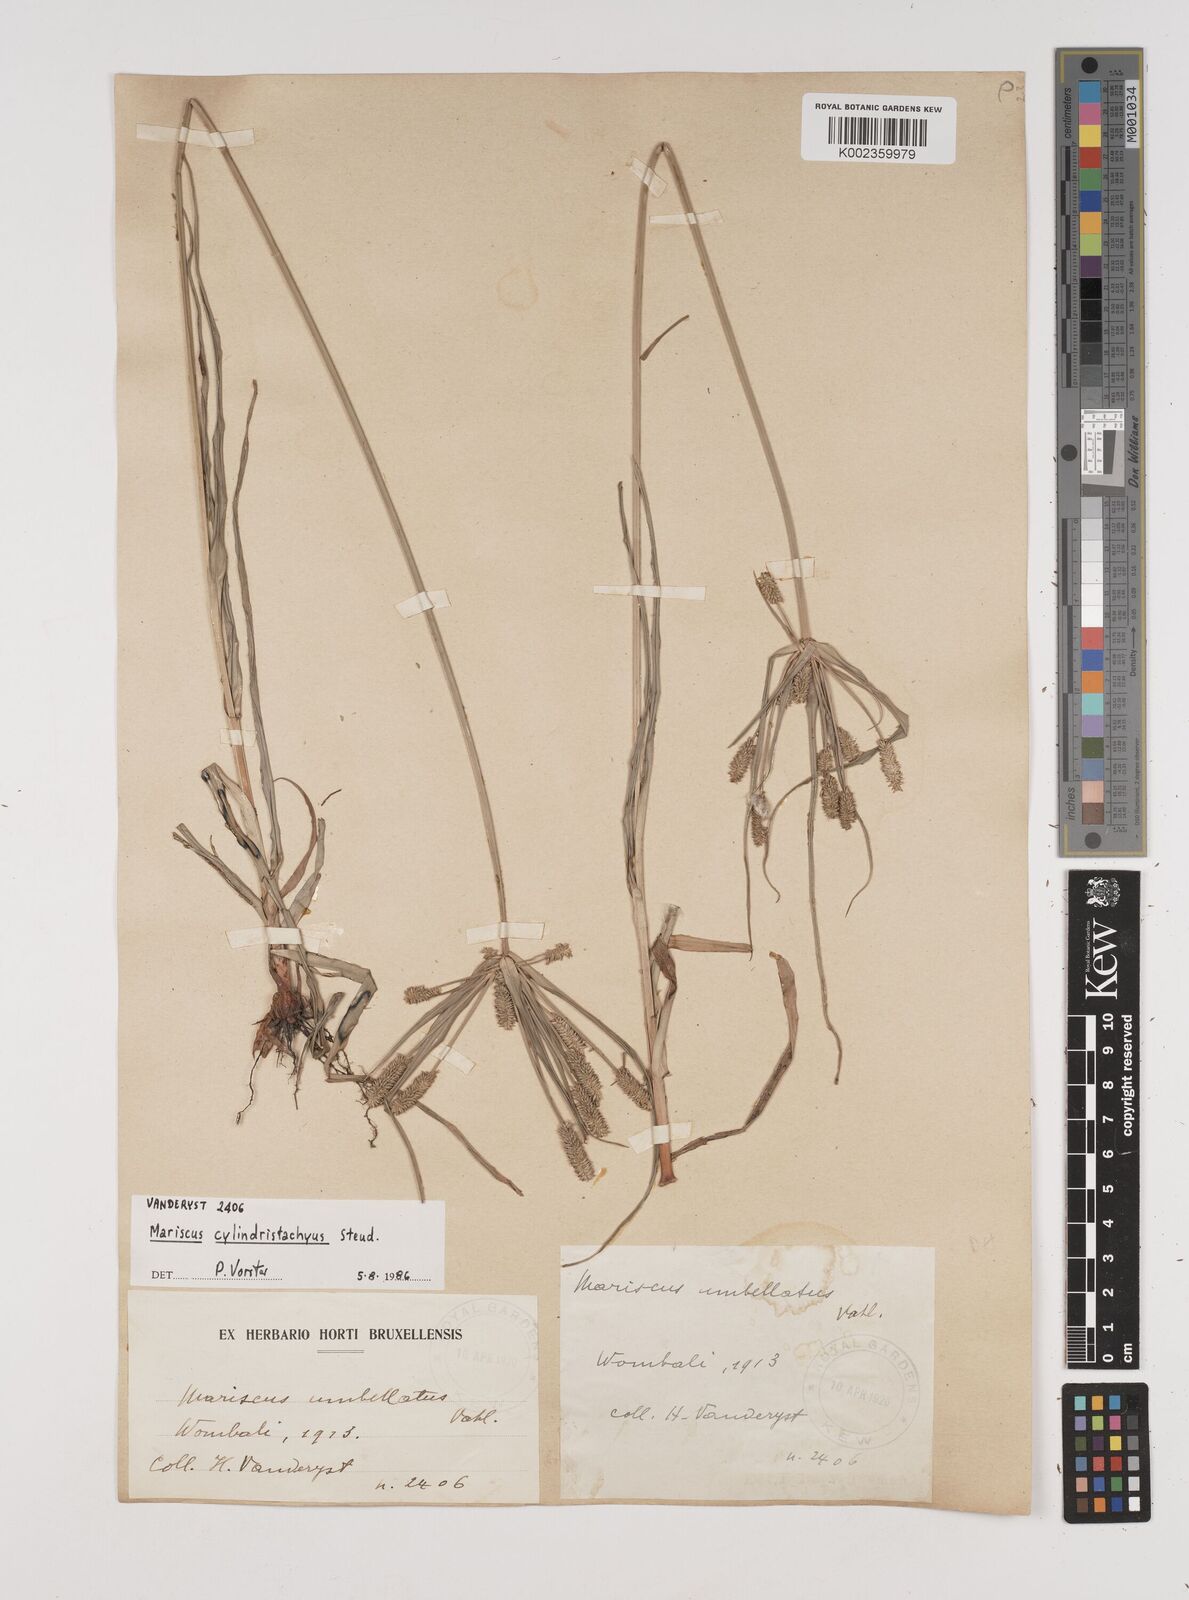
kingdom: Plantae
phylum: Tracheophyta
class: Liliopsida
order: Poales
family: Cyperaceae
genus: Cyperus
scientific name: Cyperus cyperoides
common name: Pacific island flat sedge
